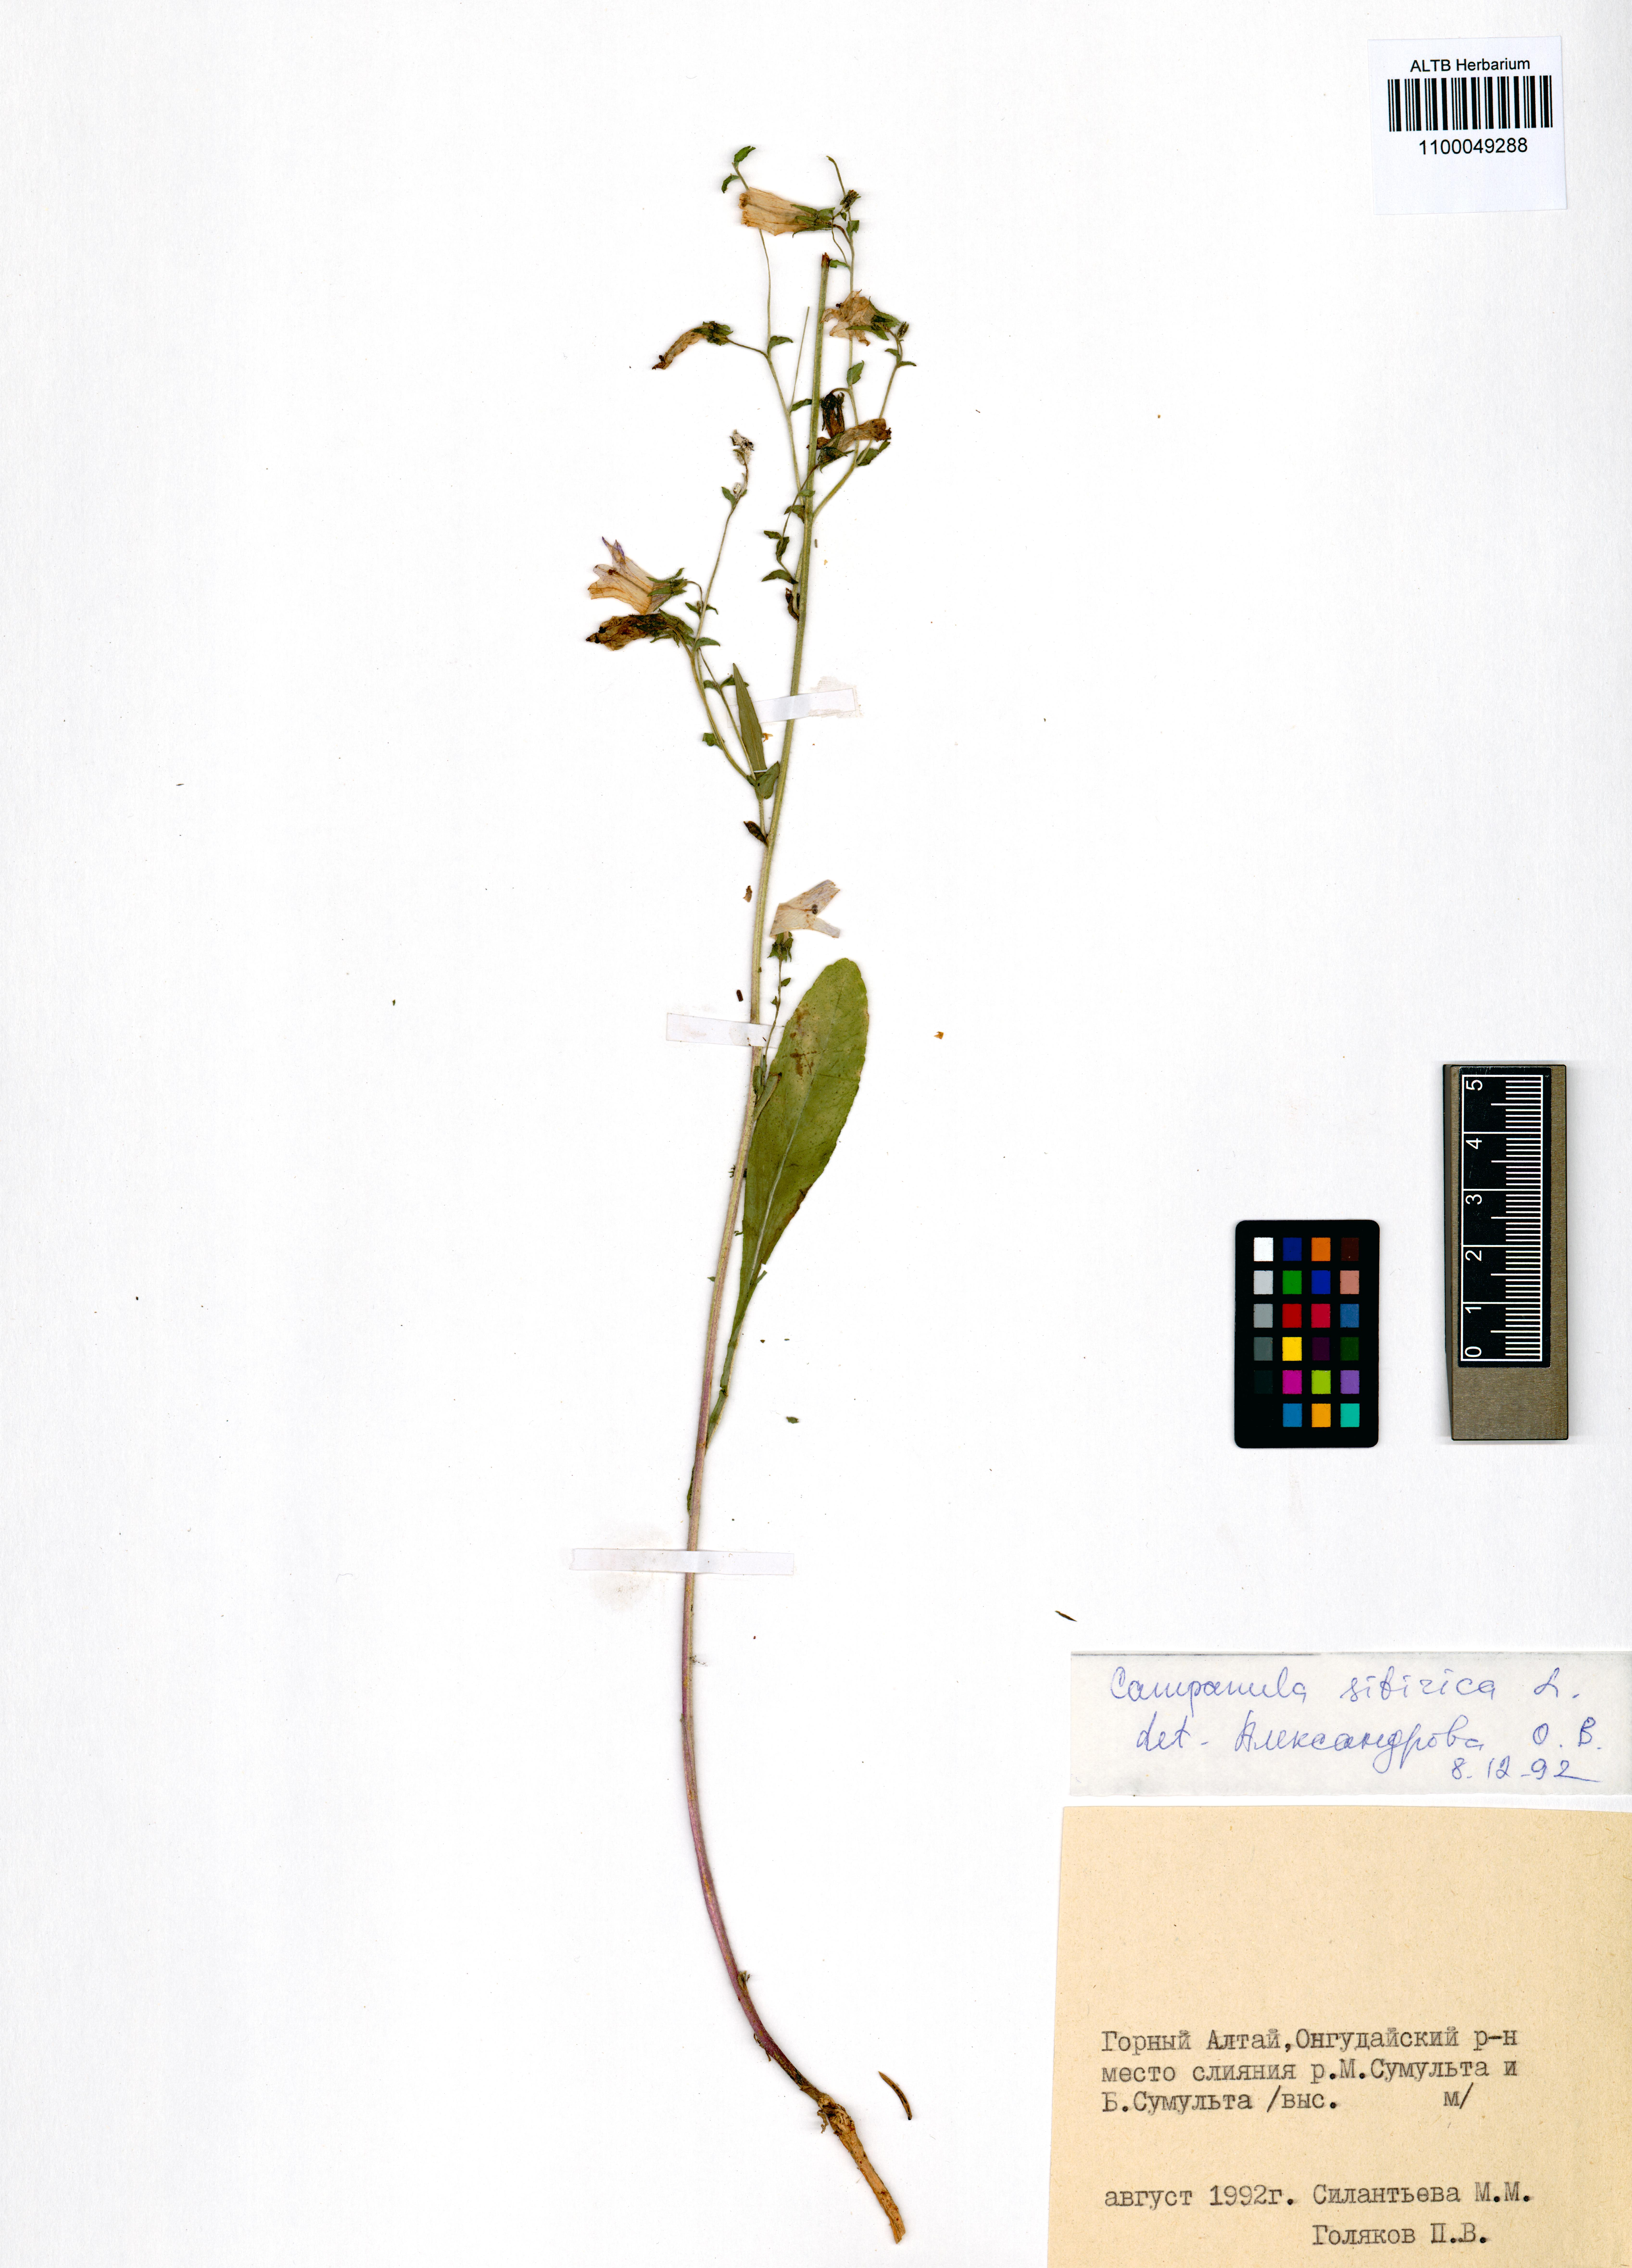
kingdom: Plantae
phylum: Tracheophyta
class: Magnoliopsida
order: Asterales
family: Campanulaceae
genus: Campanula
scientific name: Campanula sibirica
